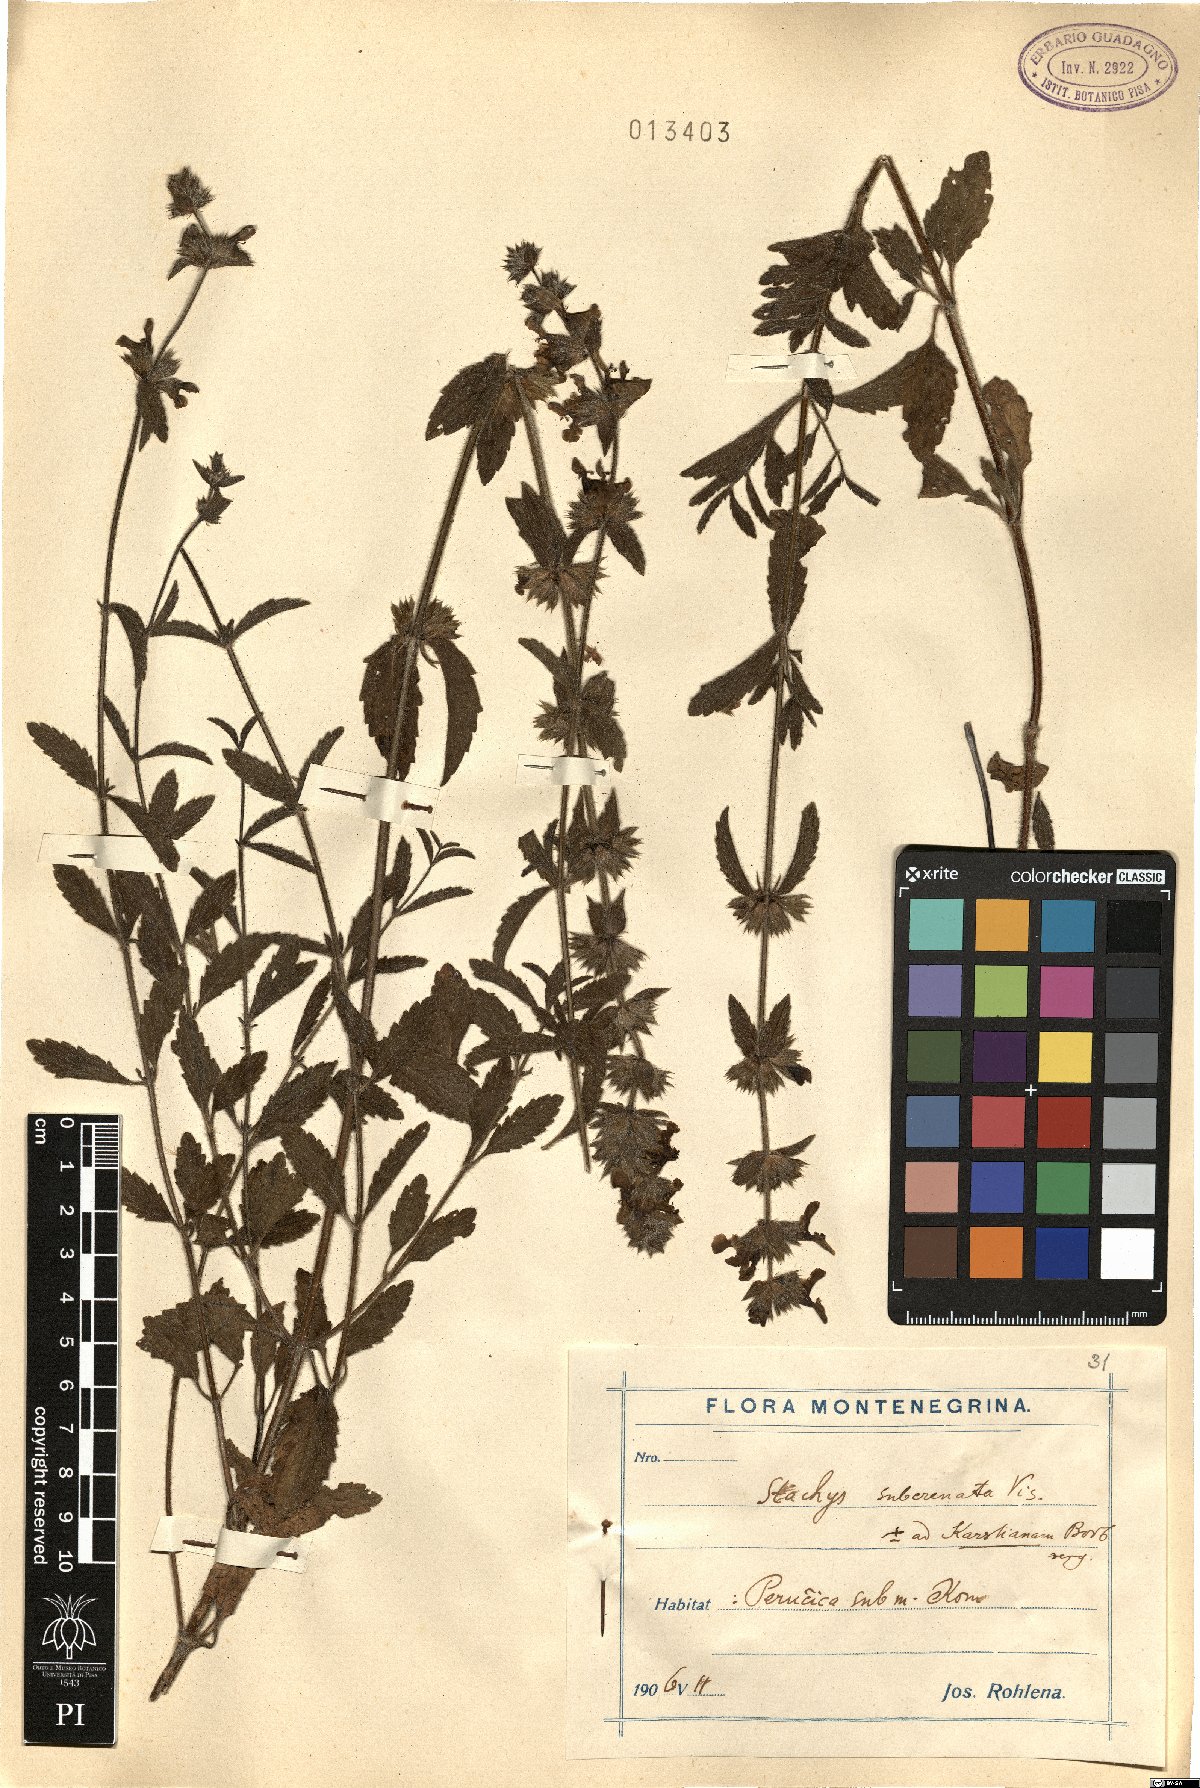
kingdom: Plantae
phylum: Tracheophyta
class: Magnoliopsida
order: Lamiales
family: Lamiaceae
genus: Stachys
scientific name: Stachys recta
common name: Perennial yellow-woundwort
